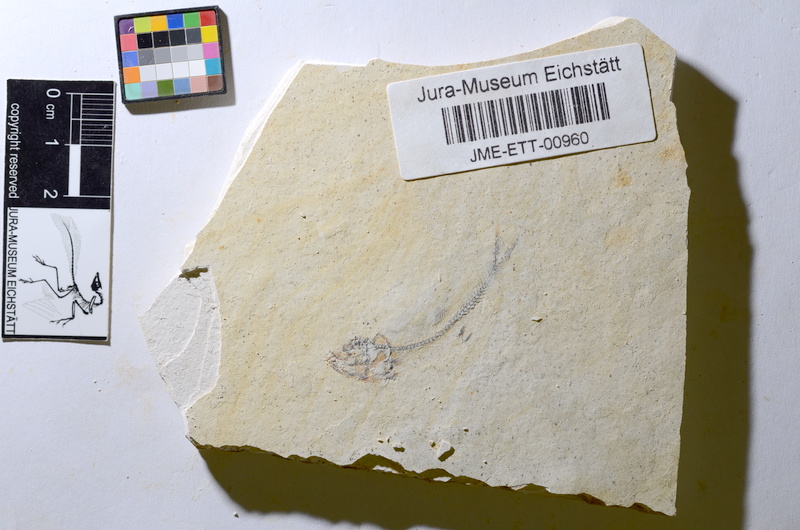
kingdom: Animalia
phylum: Chordata
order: Salmoniformes
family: Orthogonikleithridae
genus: Orthogonikleithrus
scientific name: Orthogonikleithrus hoelli
